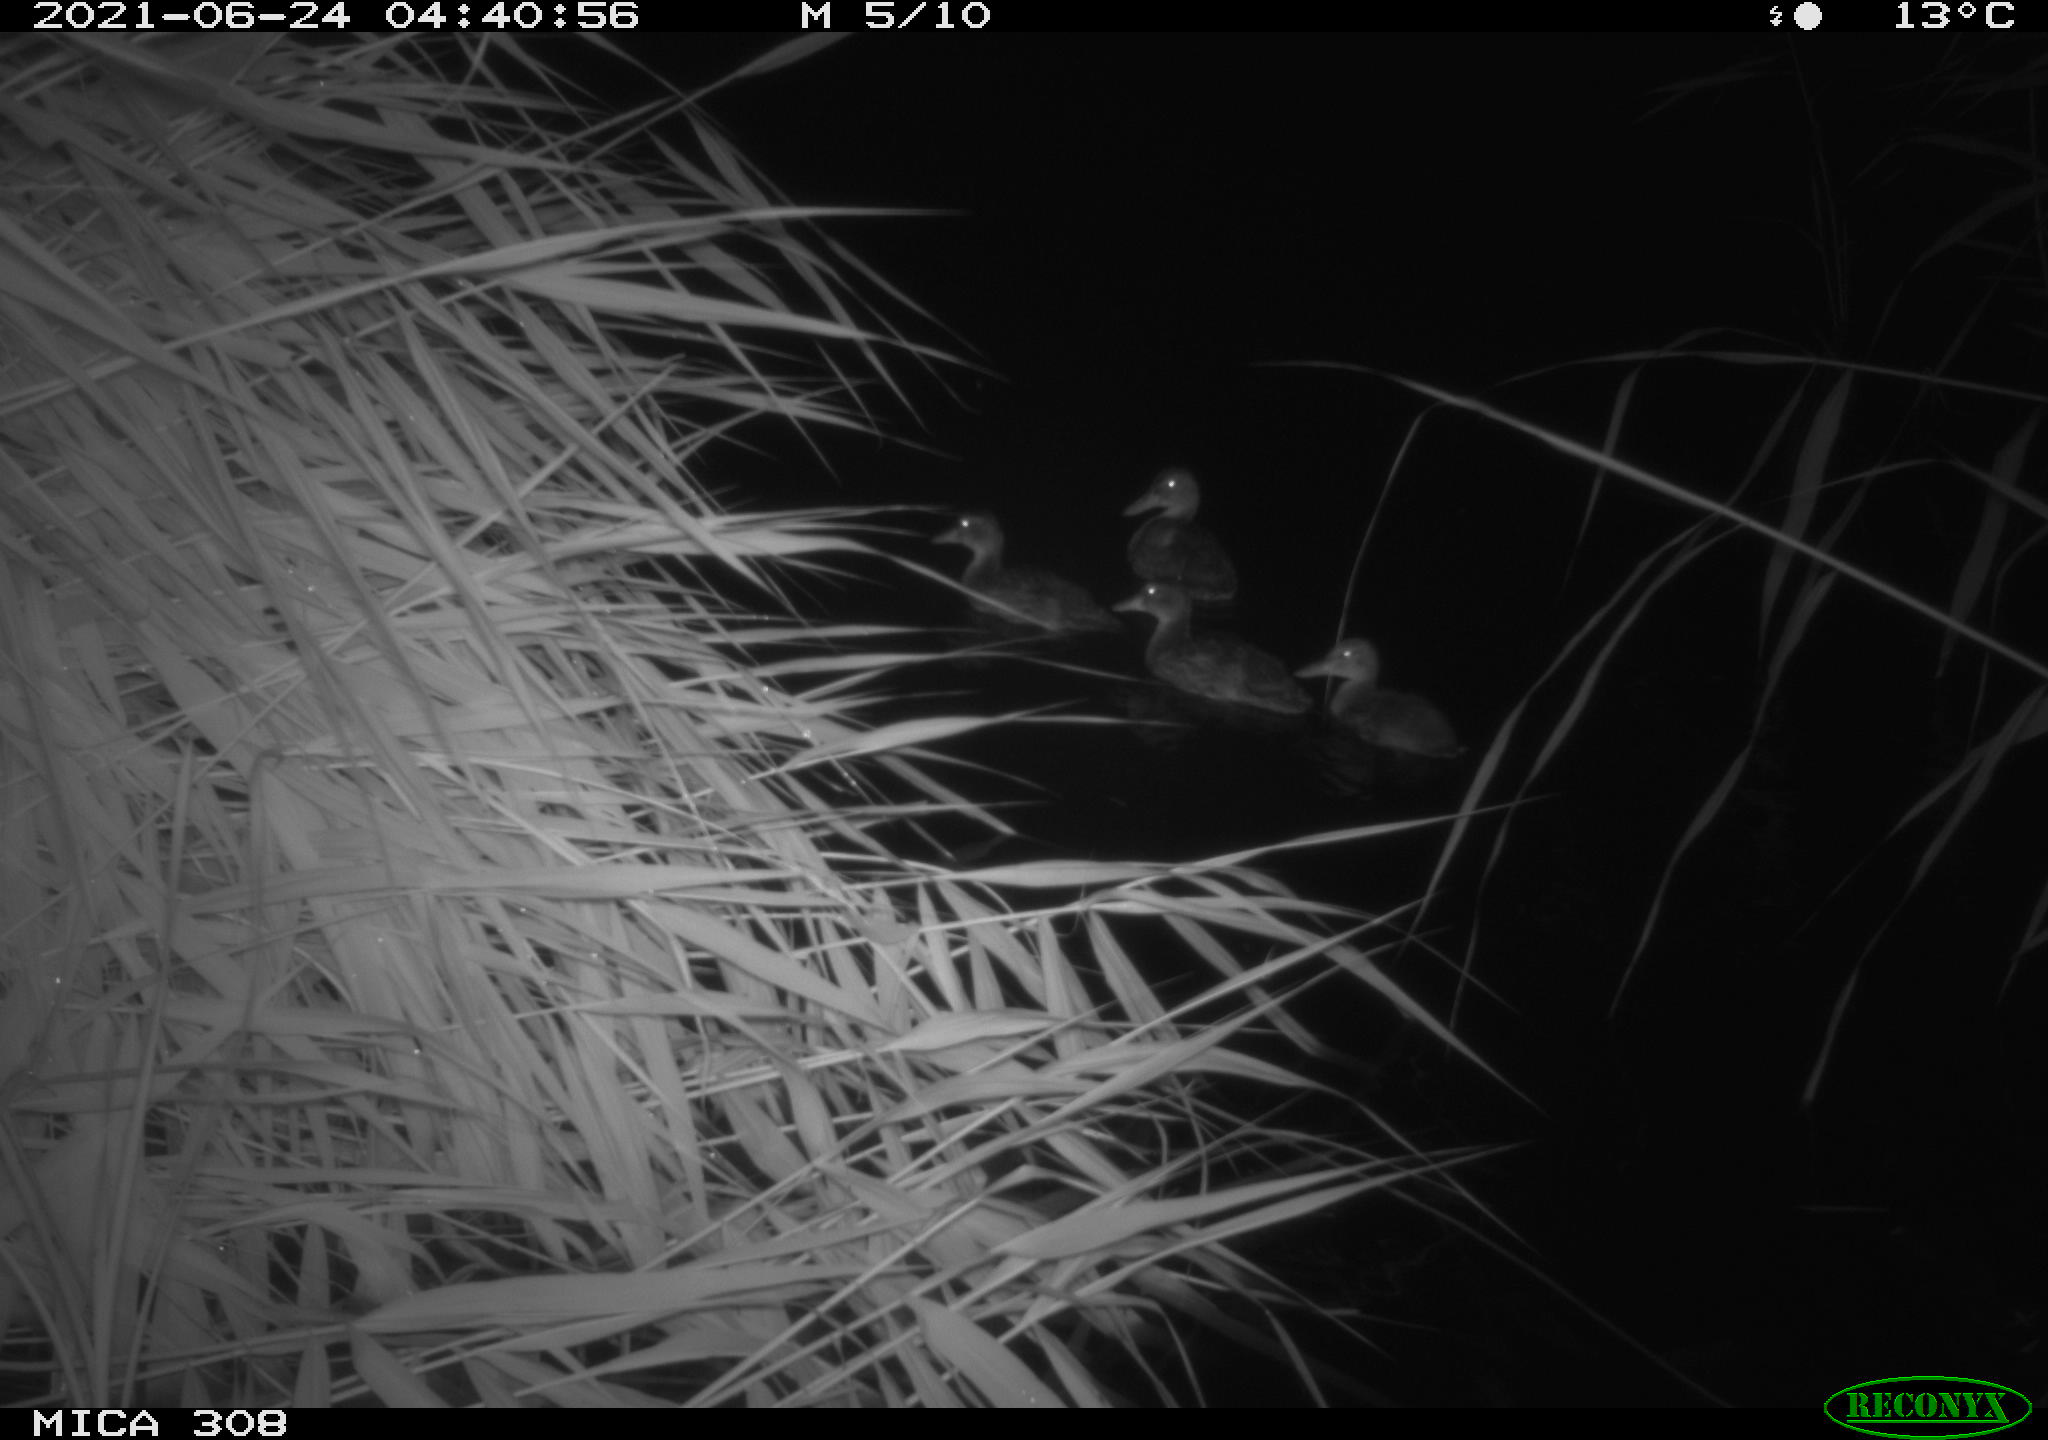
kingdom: Animalia
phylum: Chordata
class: Aves
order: Anseriformes
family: Anatidae
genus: Anas
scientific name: Anas platyrhynchos
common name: Mallard
